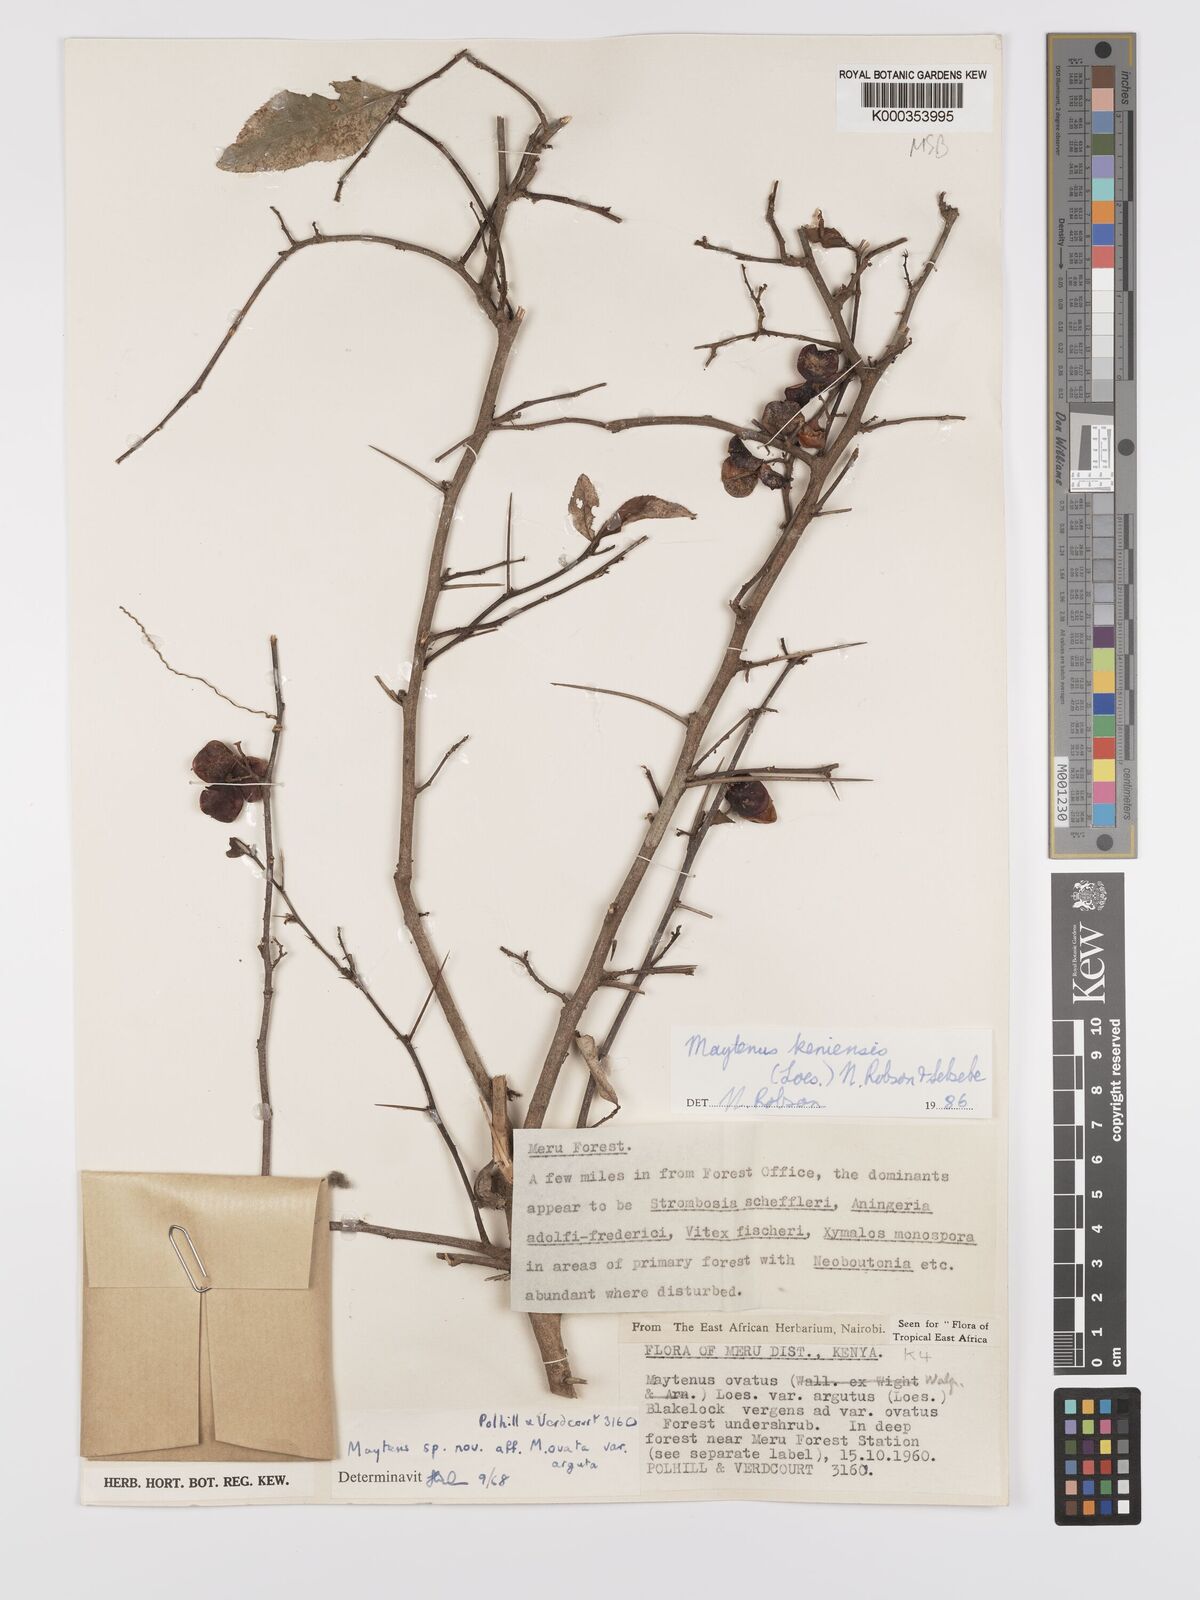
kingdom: Plantae
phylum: Tracheophyta
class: Magnoliopsida
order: Celastrales
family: Celastraceae
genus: Gymnosporia
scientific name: Gymnosporia keniensis
